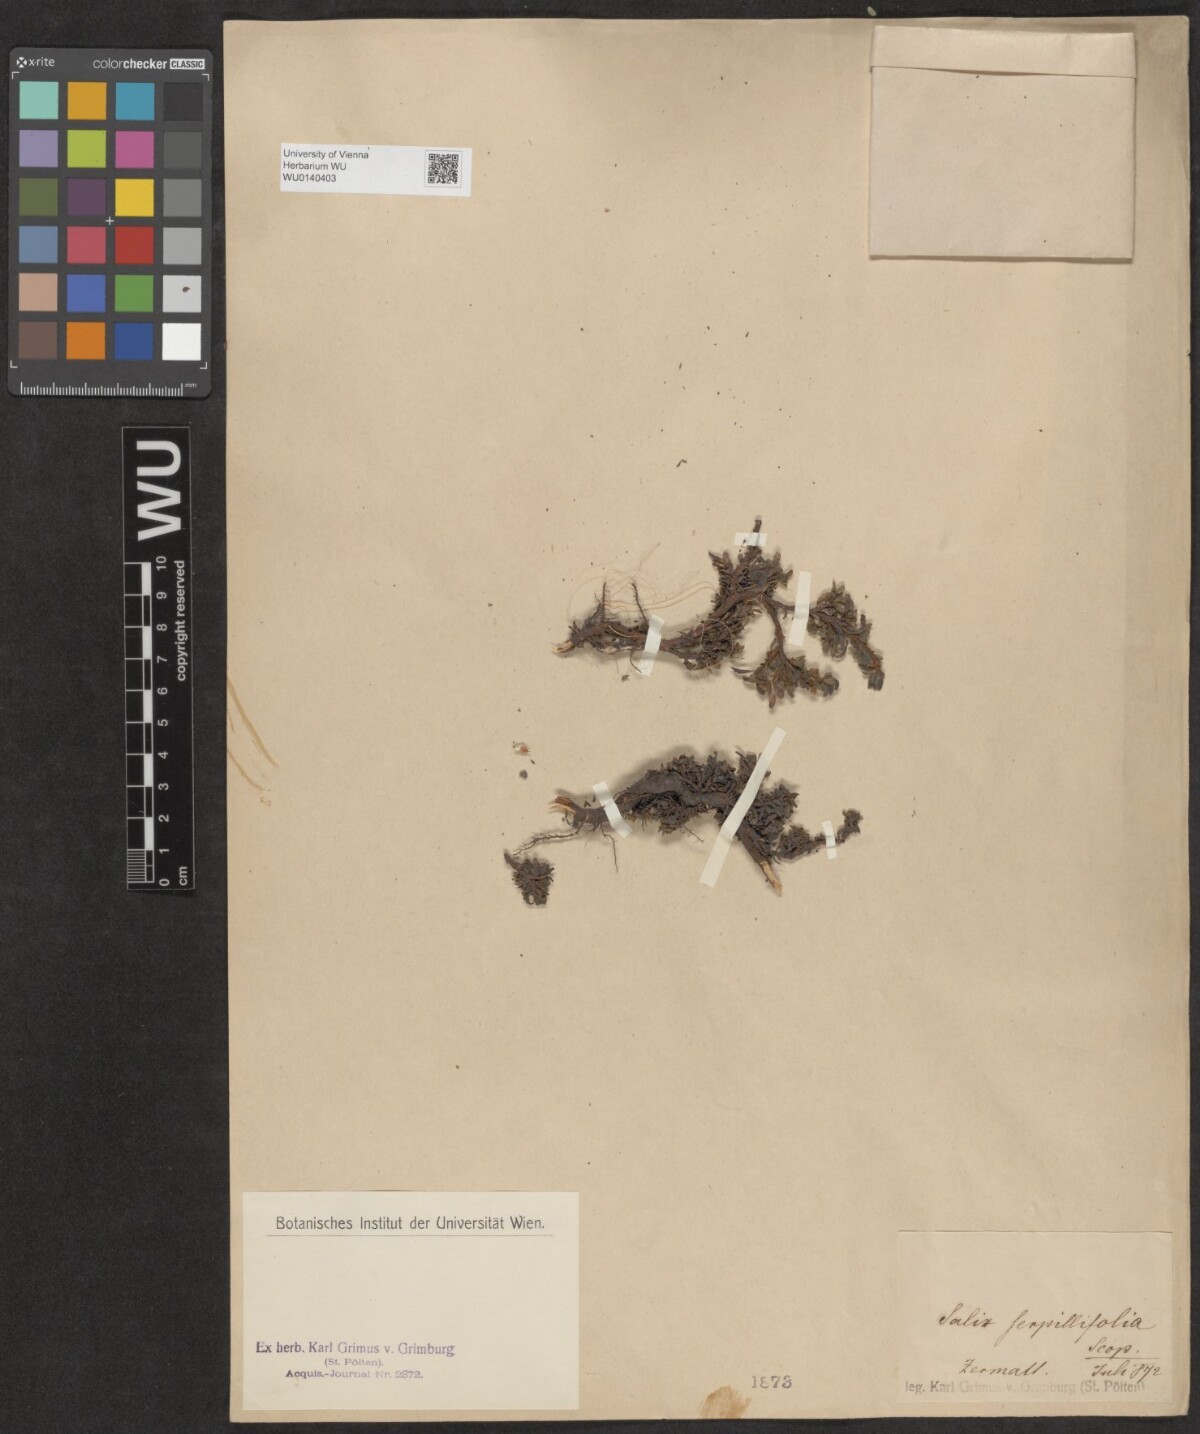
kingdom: Plantae
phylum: Tracheophyta
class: Magnoliopsida
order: Malpighiales
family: Salicaceae
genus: Salix
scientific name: Salix serpillifolia
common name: Thyme-leaf willow
